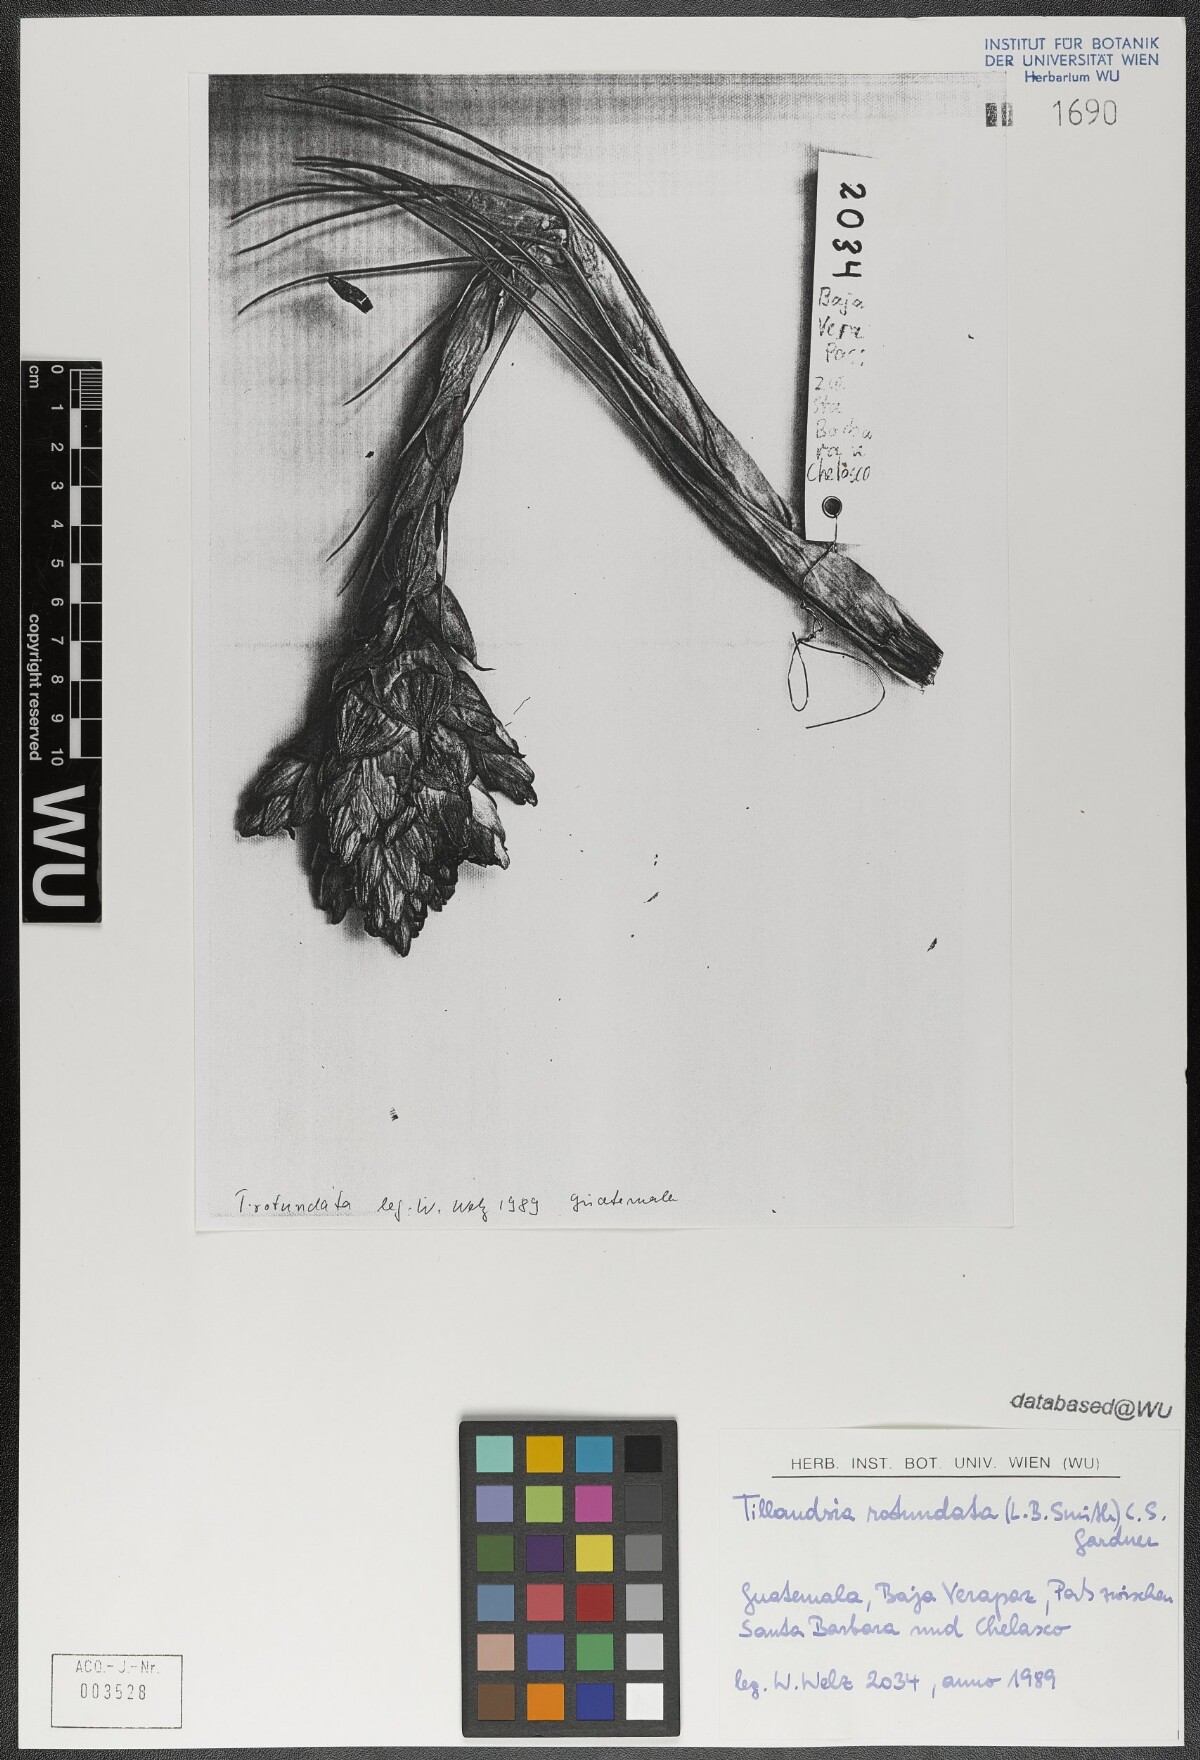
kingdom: Plantae
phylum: Tracheophyta
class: Liliopsida
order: Poales
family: Bromeliaceae
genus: Tillandsia
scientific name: Tillandsia rotundata
